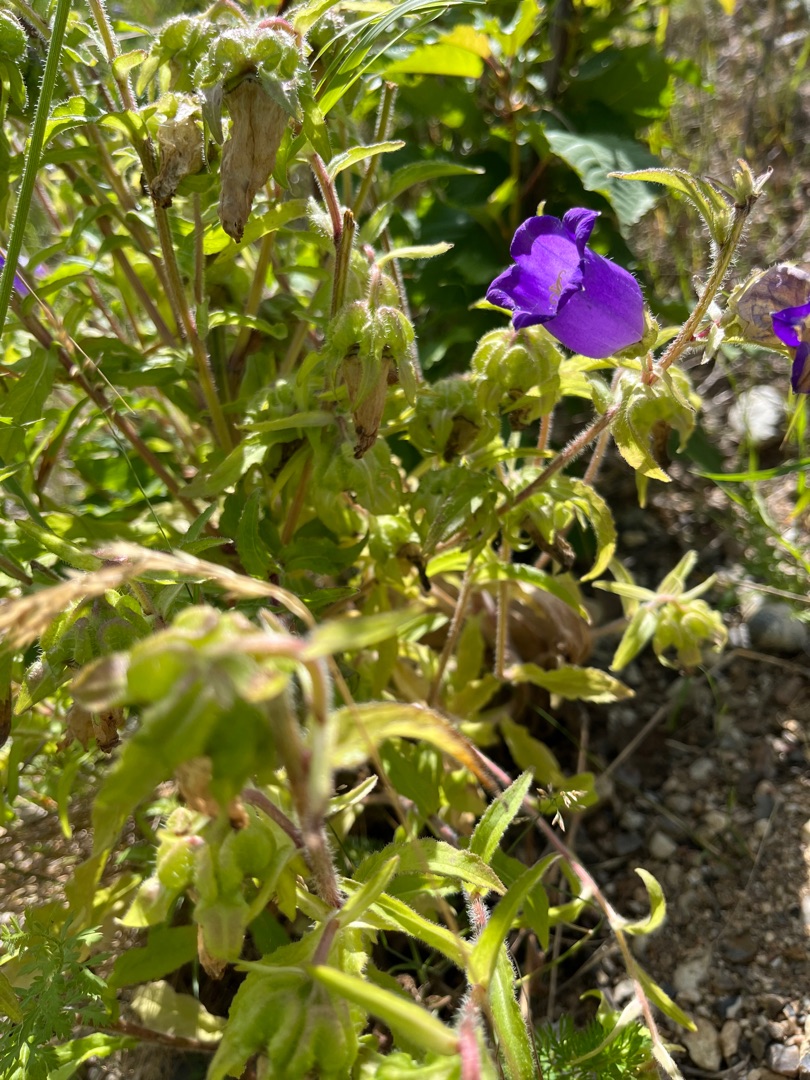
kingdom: Plantae
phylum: Tracheophyta
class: Magnoliopsida
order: Asterales
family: Campanulaceae
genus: Campanula
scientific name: Campanula medium
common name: Marie-klokke
